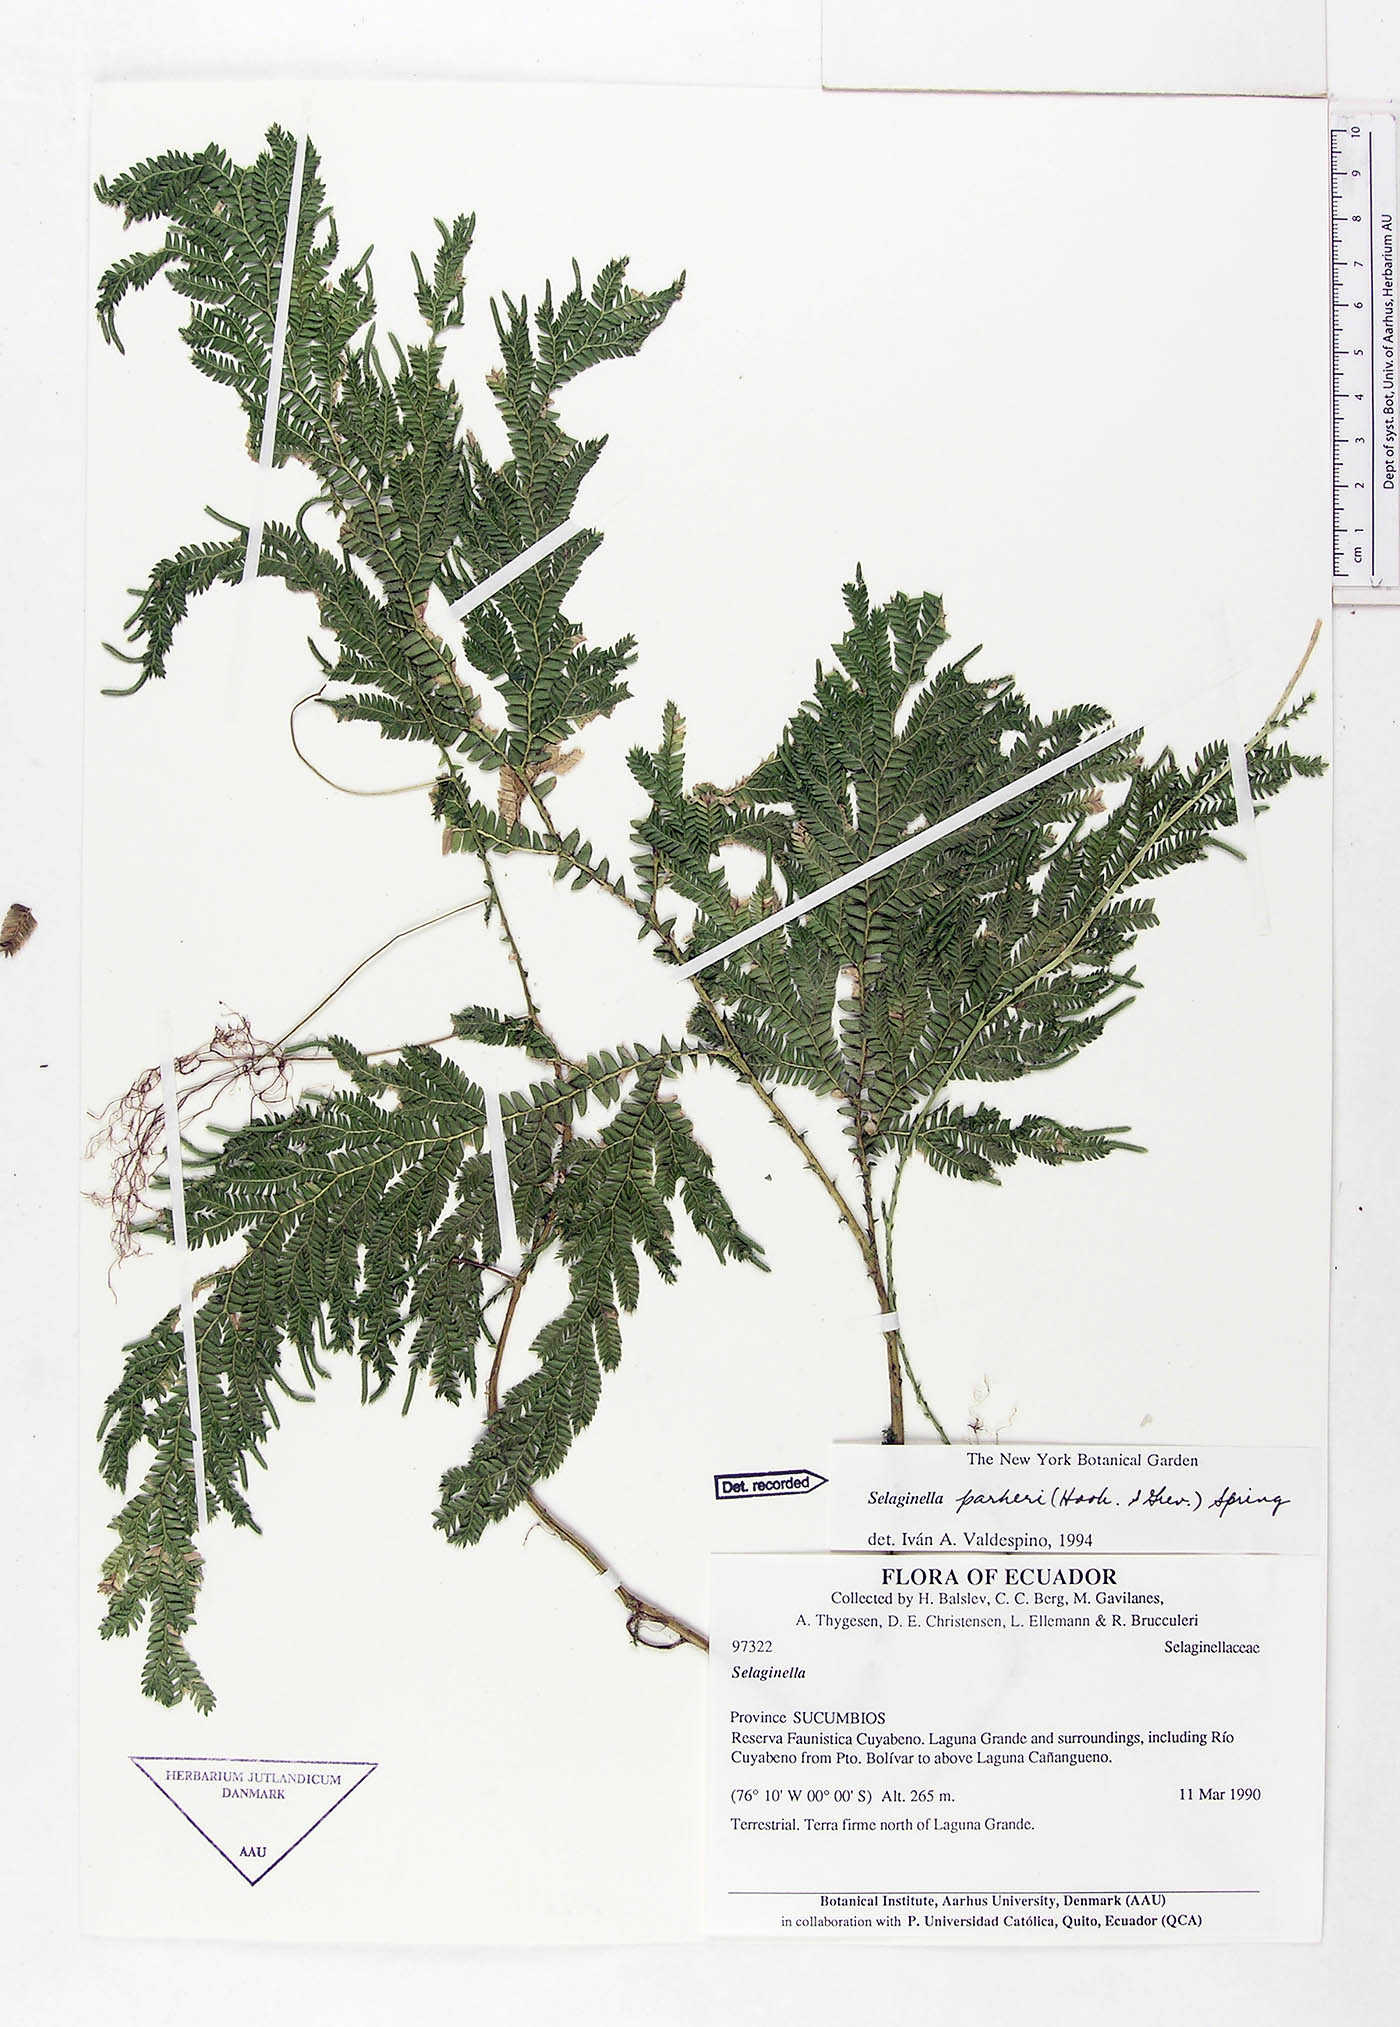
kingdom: Plantae
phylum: Tracheophyta
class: Lycopodiopsida
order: Selaginellales
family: Selaginellaceae
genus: Selaginella
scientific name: Selaginella parkeri
